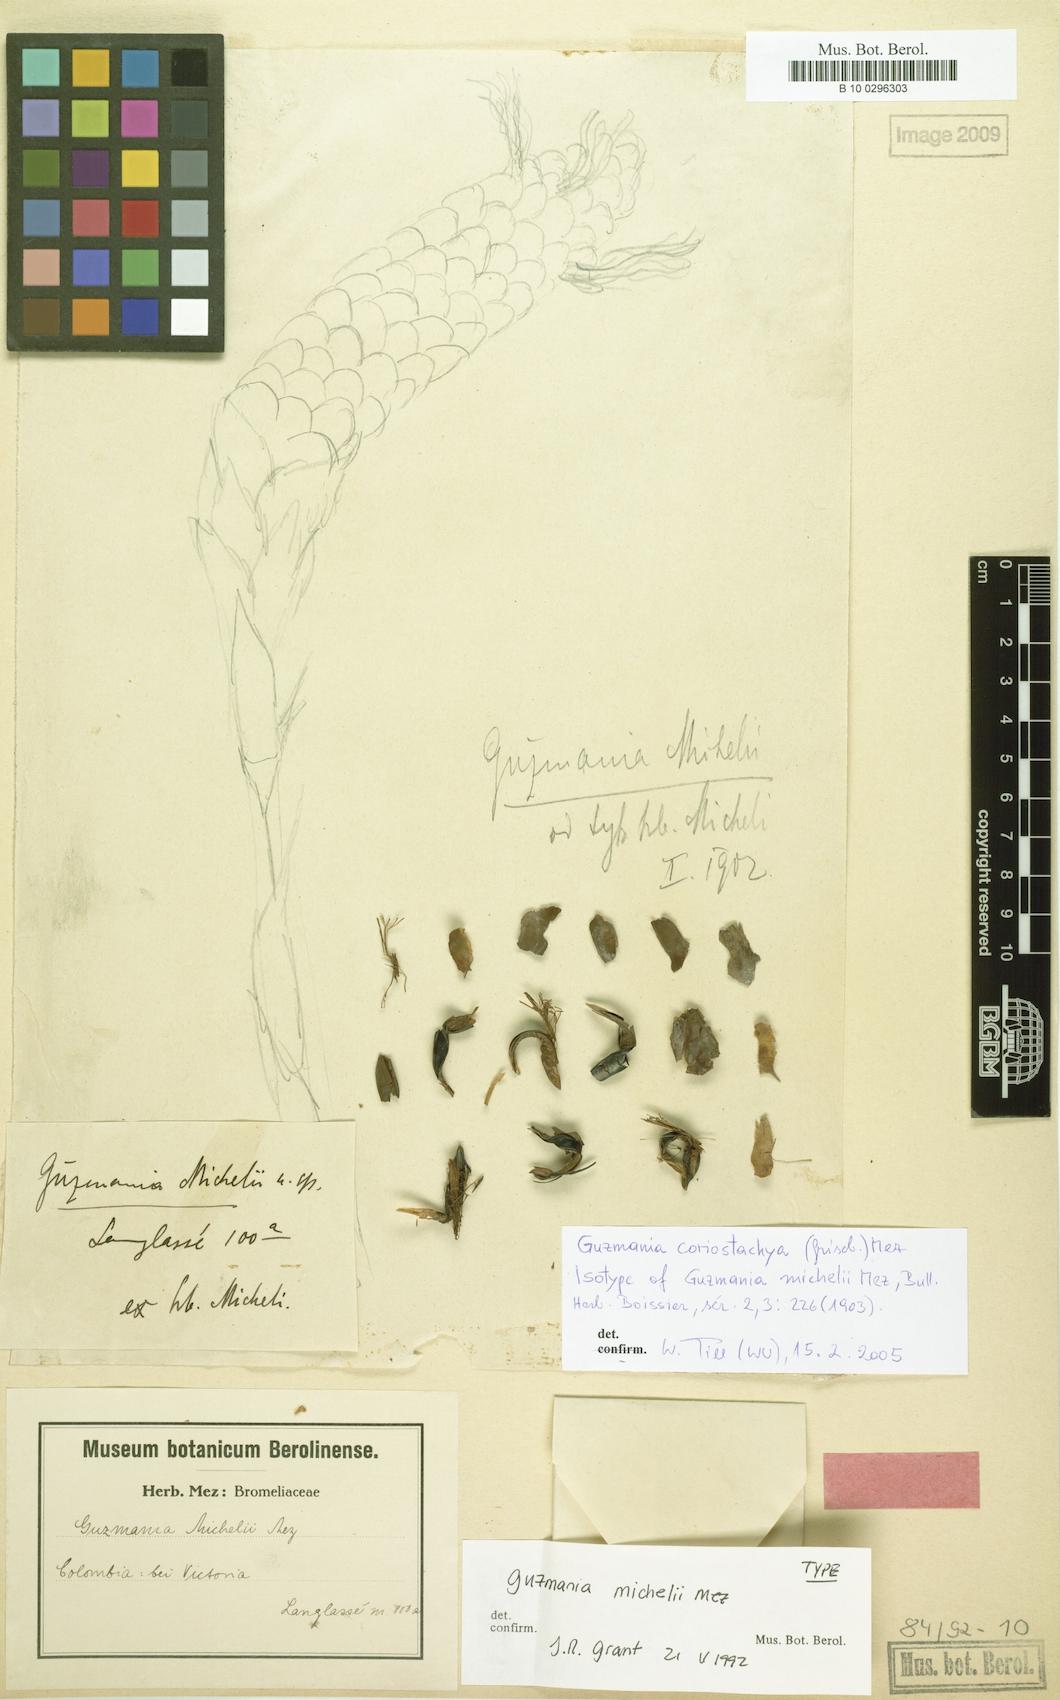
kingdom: Plantae
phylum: Tracheophyta
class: Liliopsida
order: Poales
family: Bromeliaceae
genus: Guzmania
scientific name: Guzmania coriostachya
